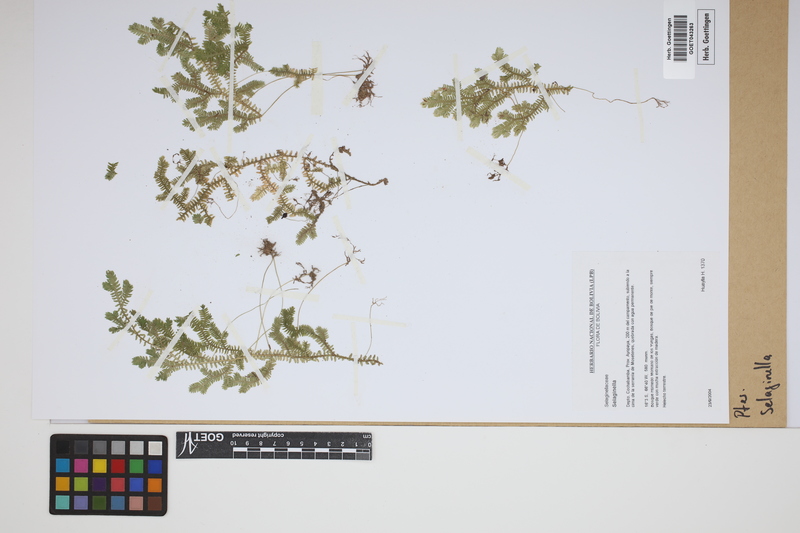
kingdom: Plantae
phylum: Tracheophyta
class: Lycopodiopsida
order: Selaginellales
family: Selaginellaceae
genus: Selaginella
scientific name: Selaginella
